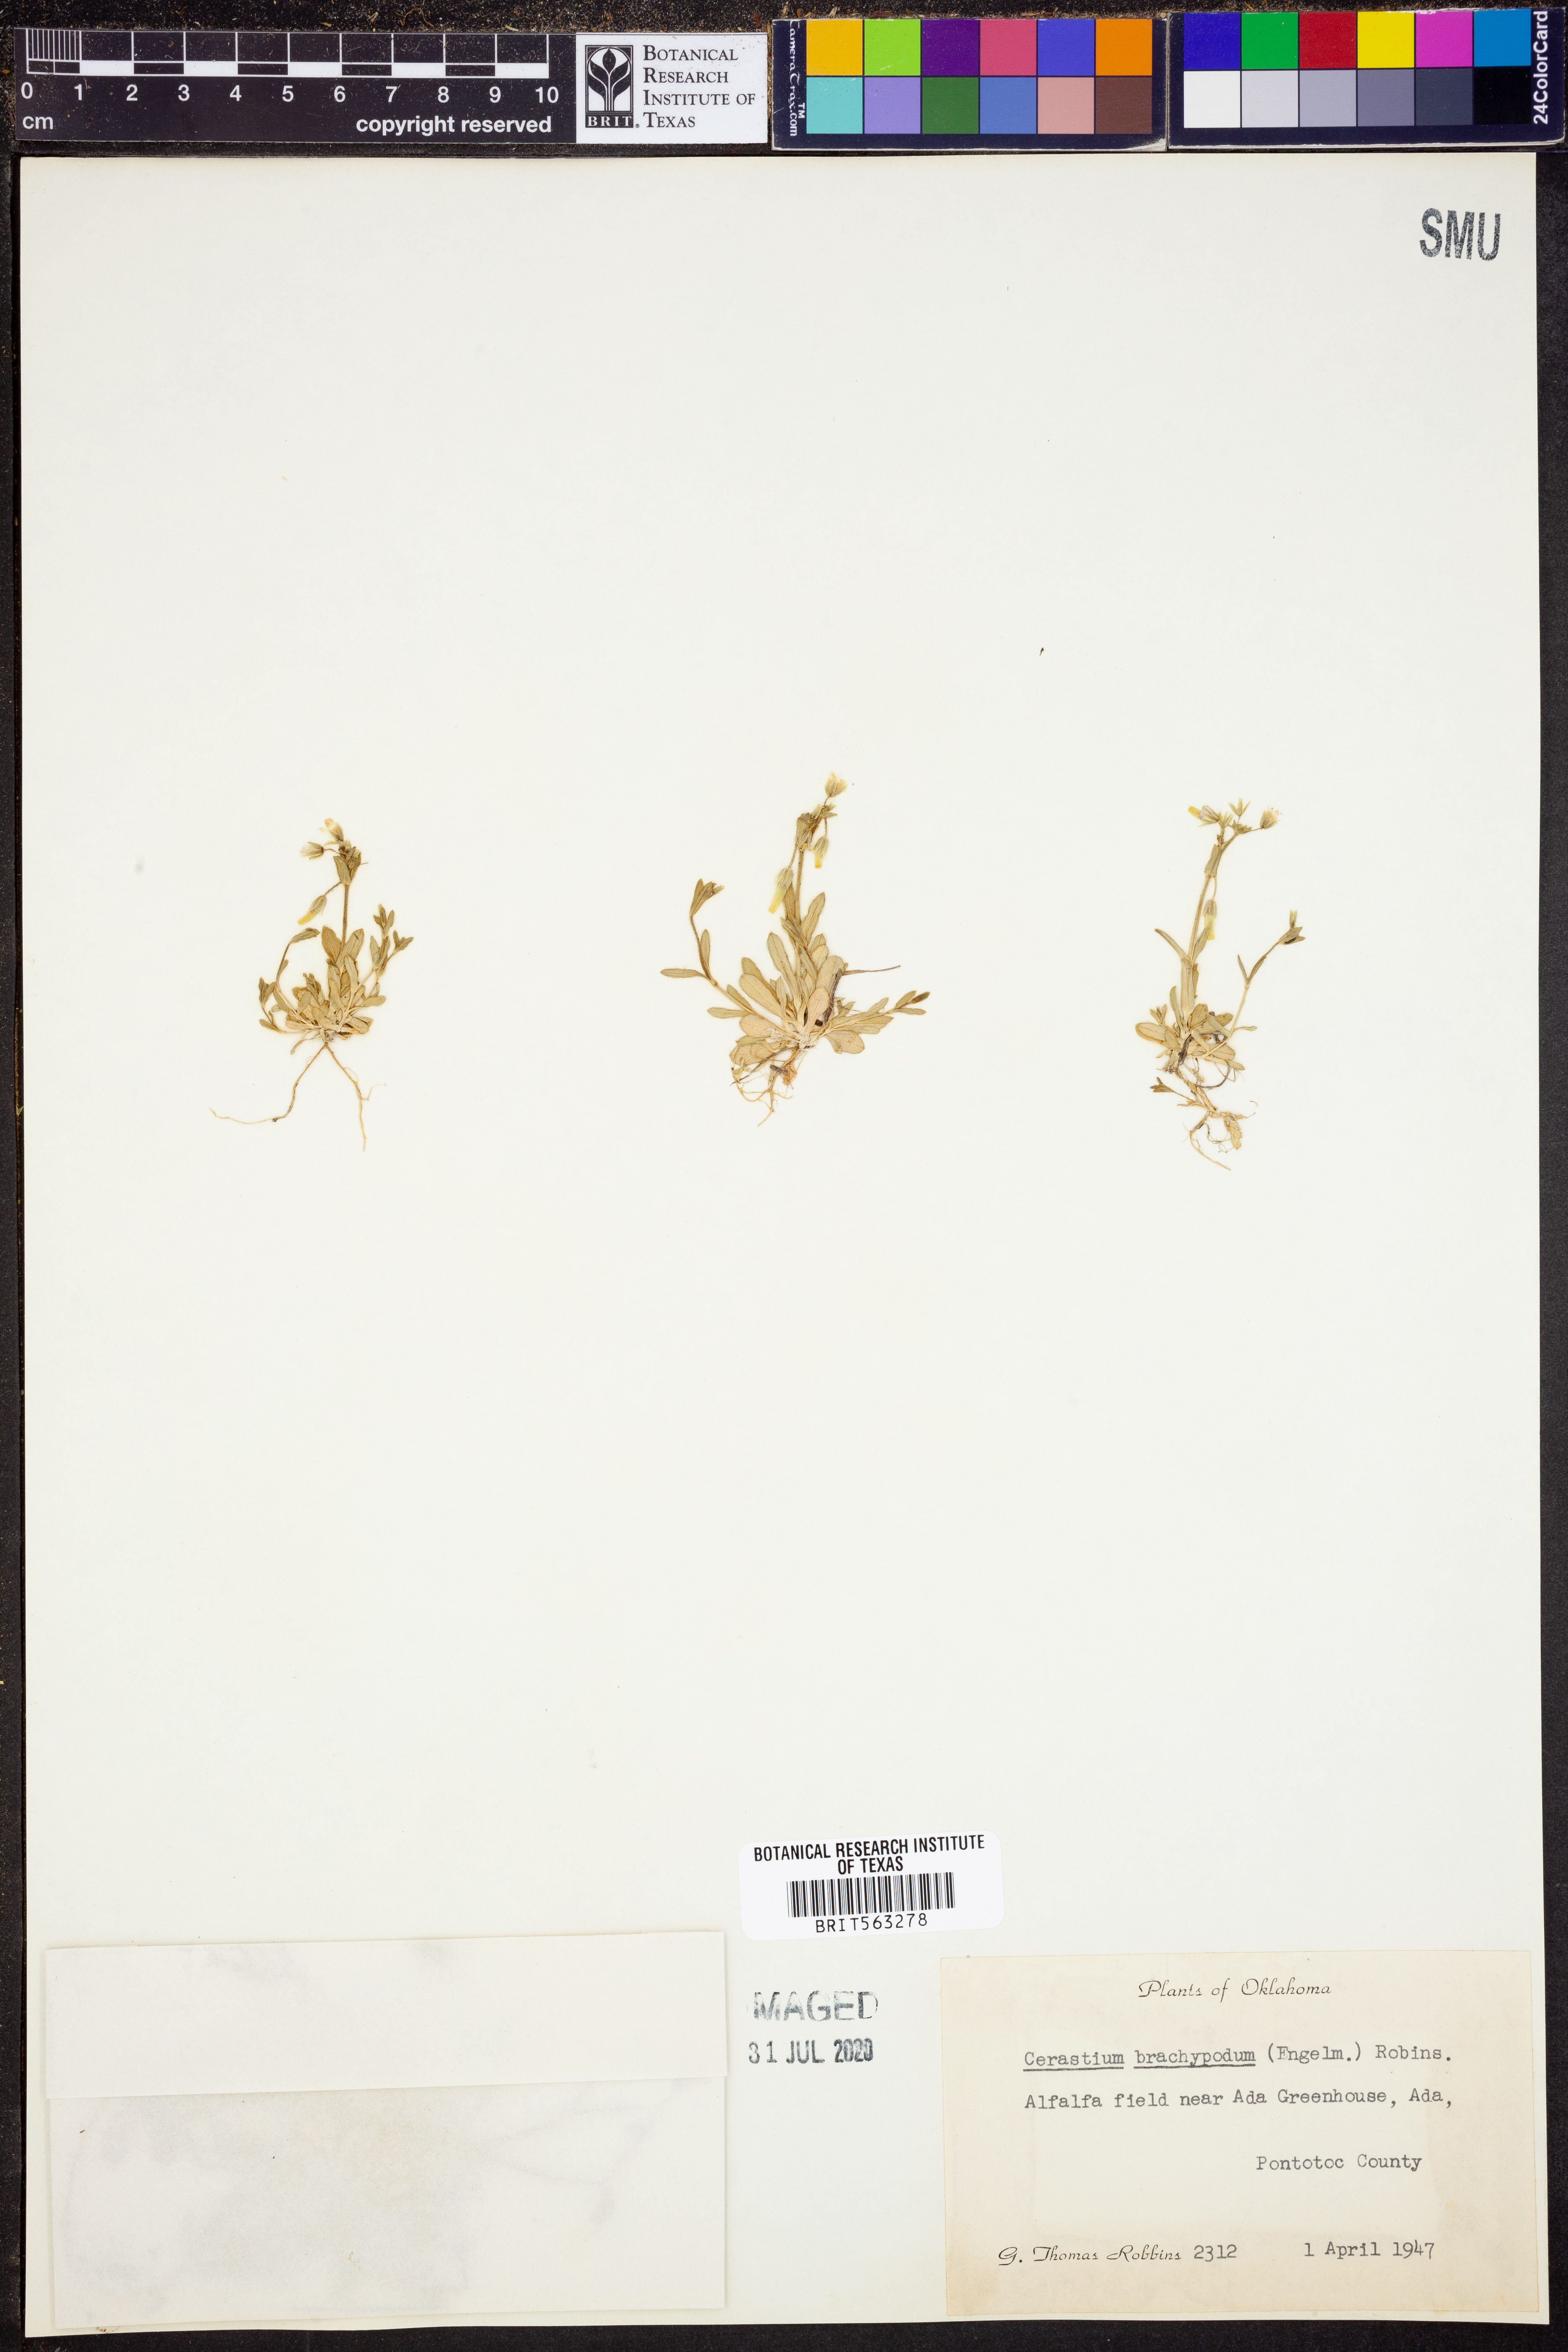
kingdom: Plantae
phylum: Tracheophyta
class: Magnoliopsida
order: Caryophyllales
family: Caryophyllaceae
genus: Cerastium
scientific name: Cerastium brachypodum
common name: Short-pedicelled nodding chickweed
